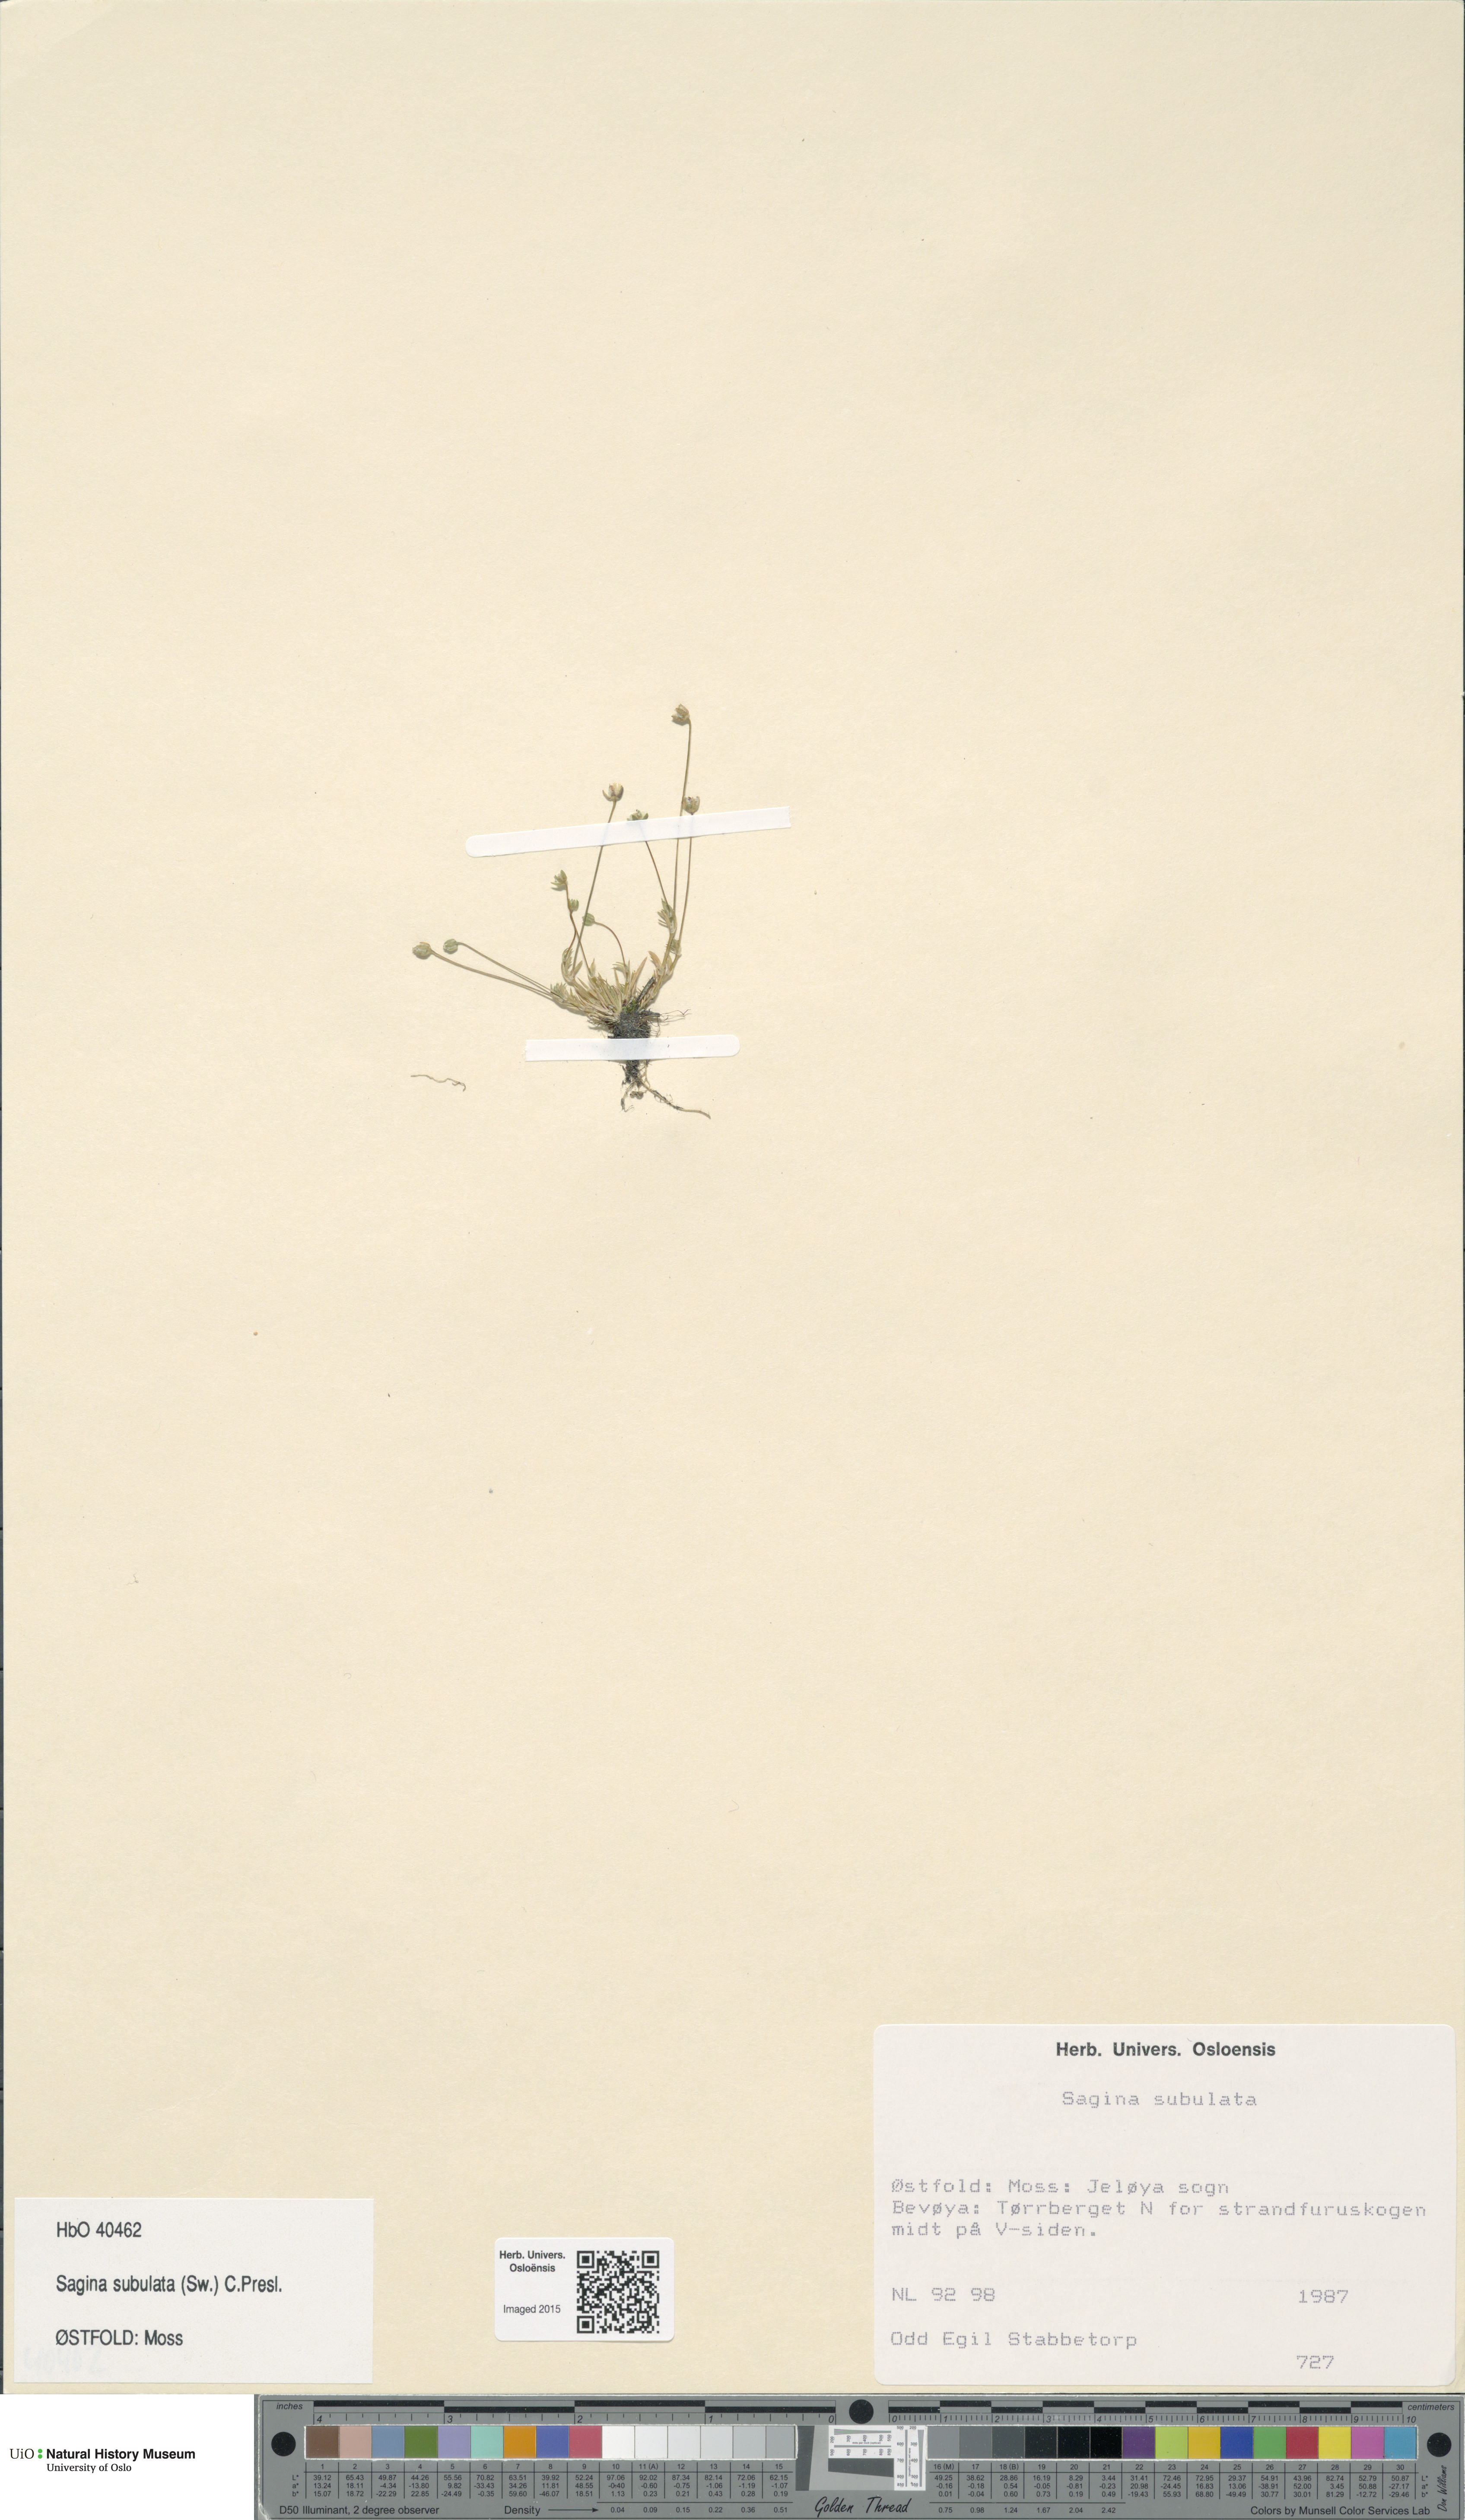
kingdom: Plantae
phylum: Tracheophyta
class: Magnoliopsida
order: Caryophyllales
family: Caryophyllaceae
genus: Sagina
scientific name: Sagina alexandrae
